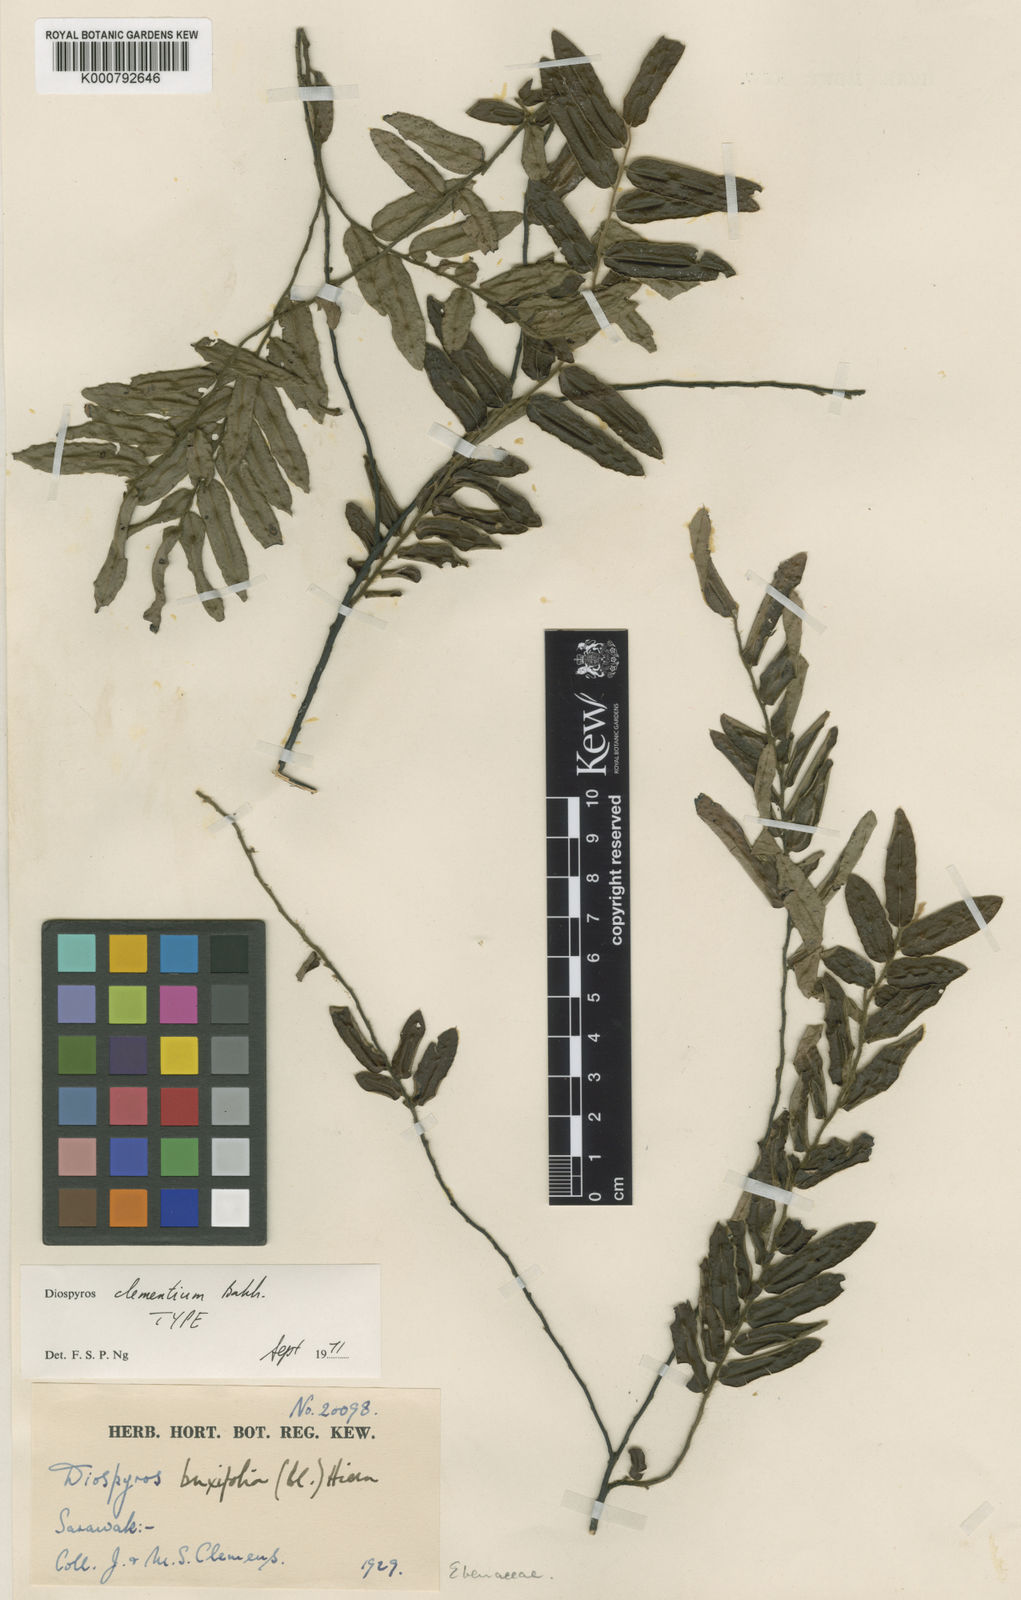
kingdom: Plantae
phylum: Tracheophyta
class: Magnoliopsida
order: Ericales
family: Ebenaceae
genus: Diospyros
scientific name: Diospyros clementium
